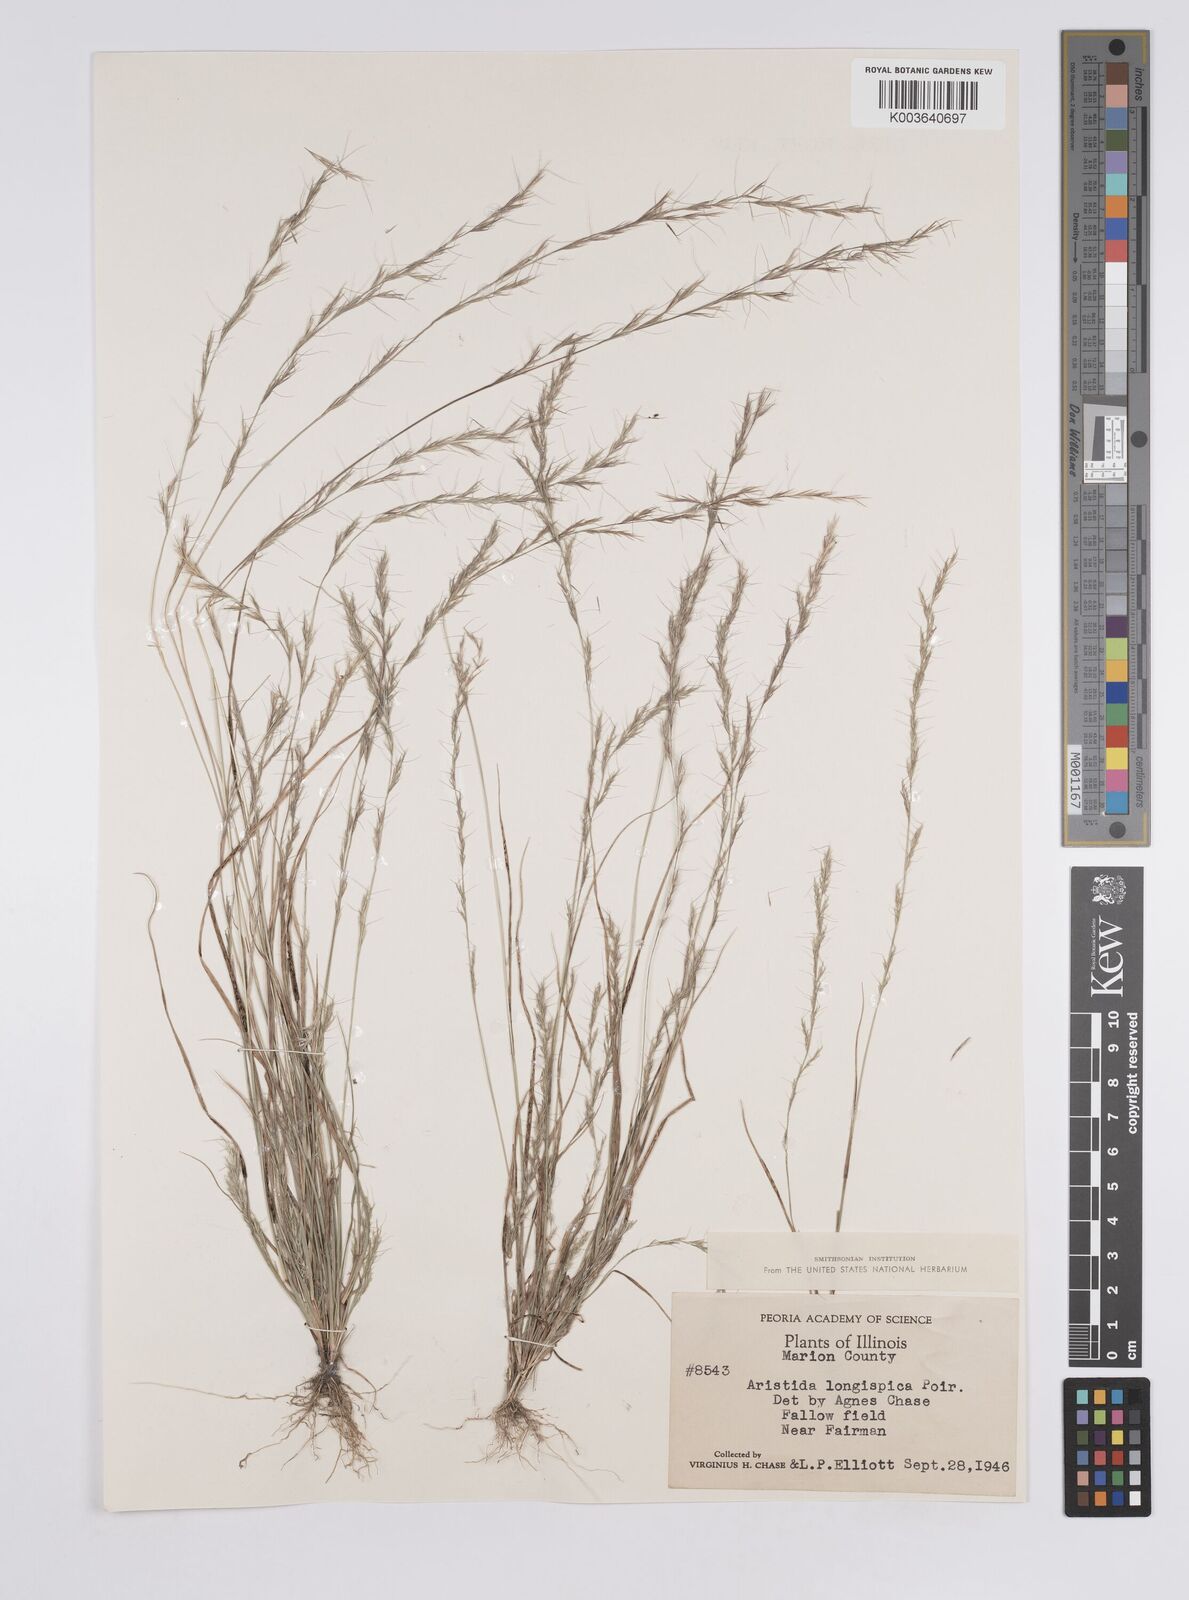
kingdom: Plantae
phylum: Tracheophyta
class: Liliopsida
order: Poales
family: Poaceae
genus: Aristida
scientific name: Aristida longespica
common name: Long-spiked triple-awned grass
